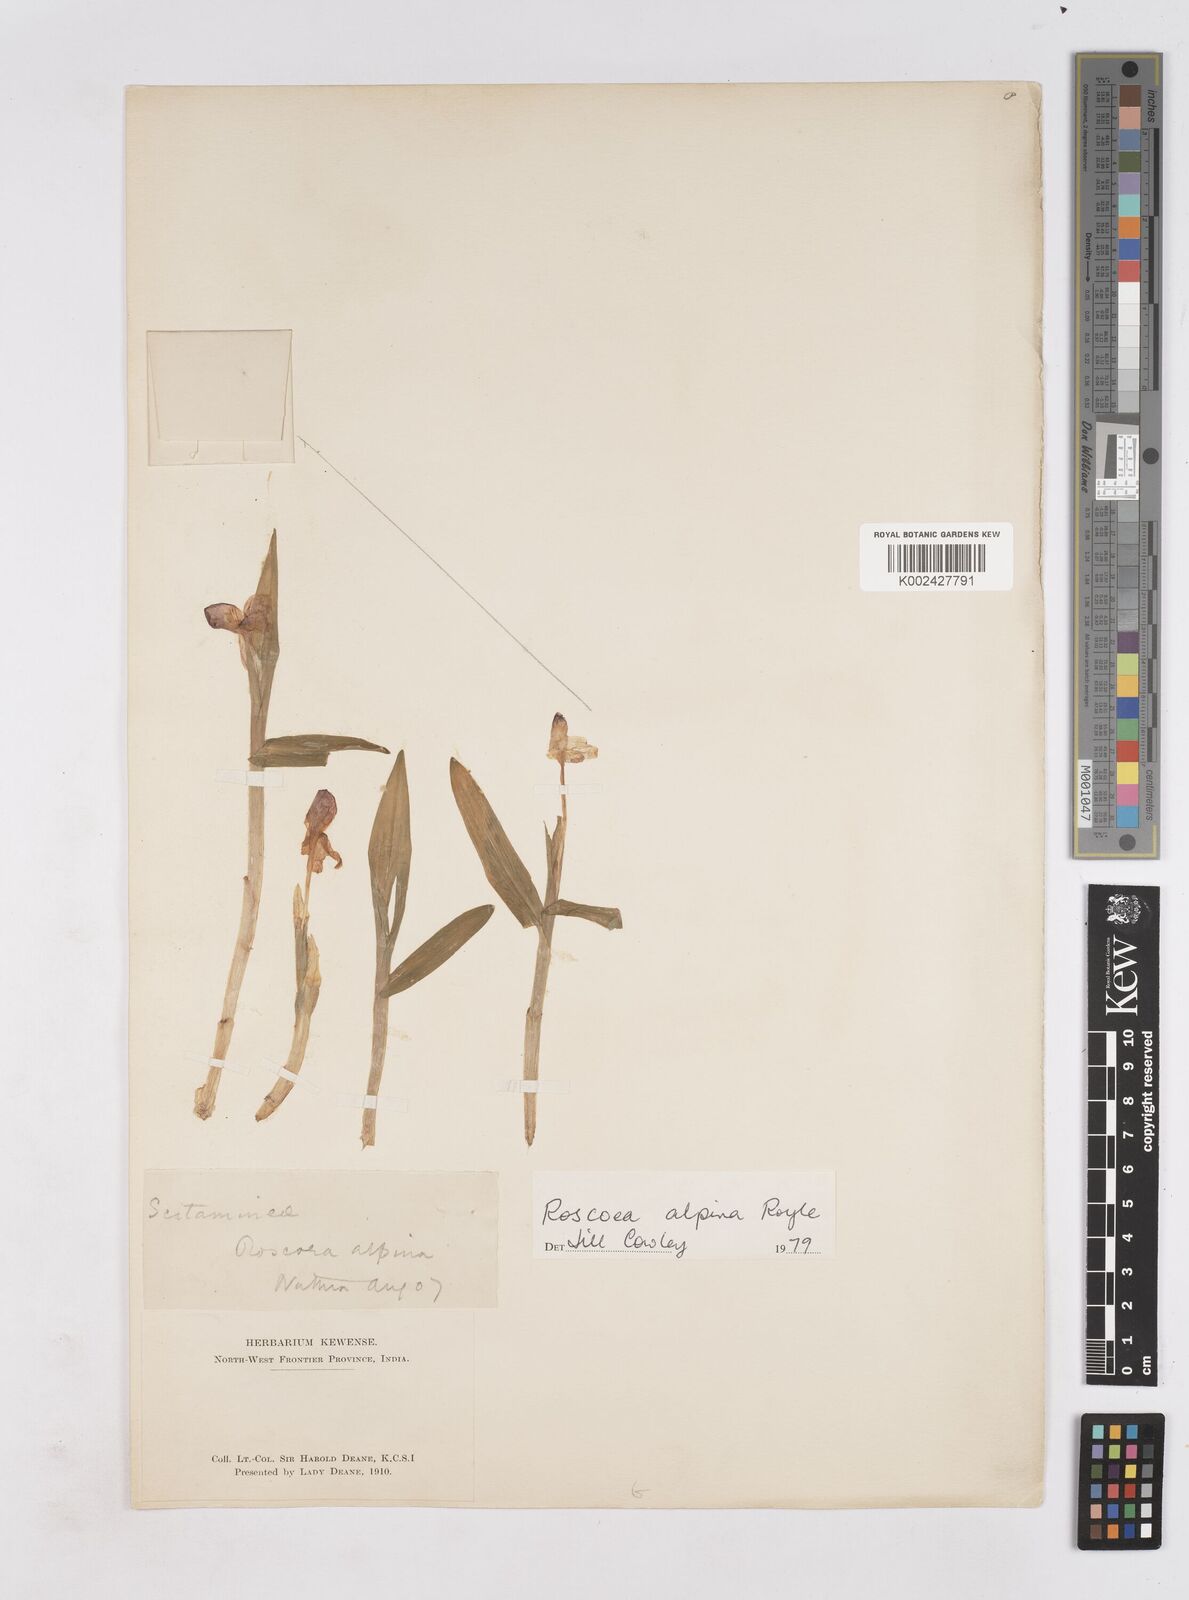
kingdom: Plantae
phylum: Tracheophyta
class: Liliopsida
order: Zingiberales
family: Zingiberaceae
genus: Roscoea
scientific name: Roscoea alpina
